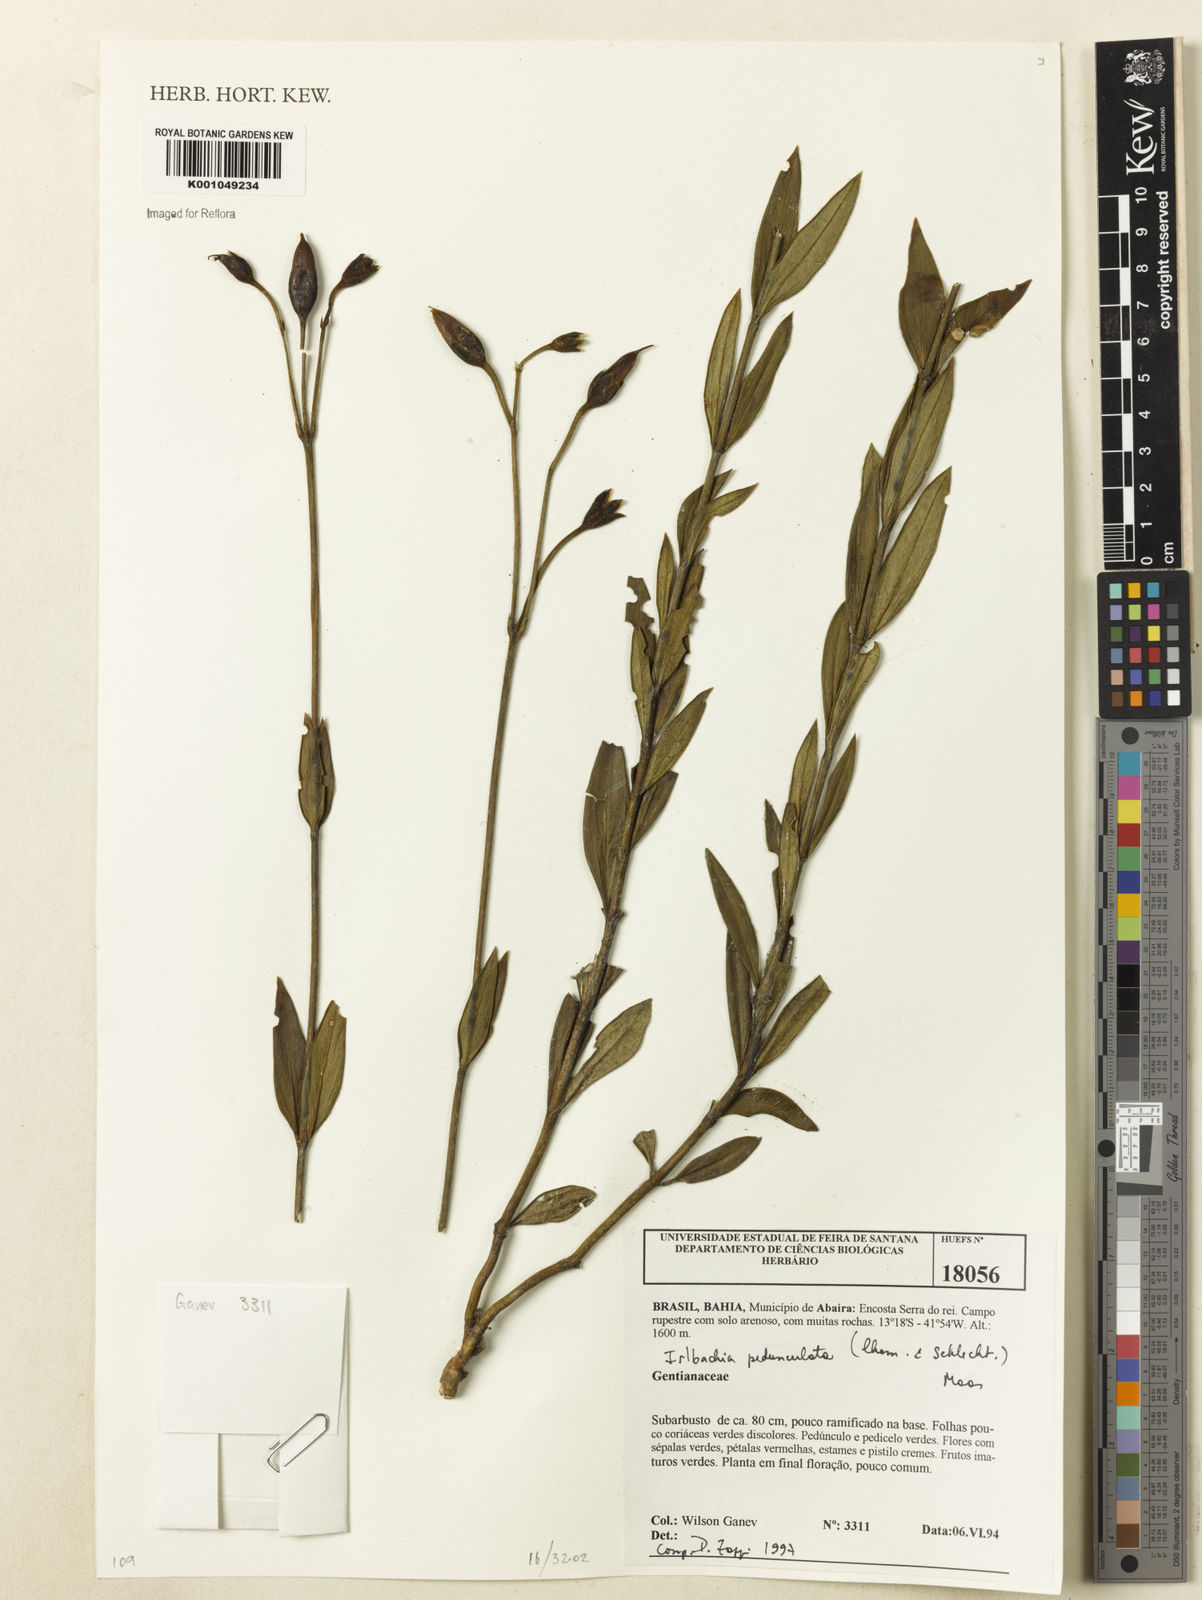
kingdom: Plantae
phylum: Tracheophyta
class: Magnoliopsida
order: Gentianales
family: Gentianaceae
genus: Calolisianthus
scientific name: Calolisianthus pedunculatus
